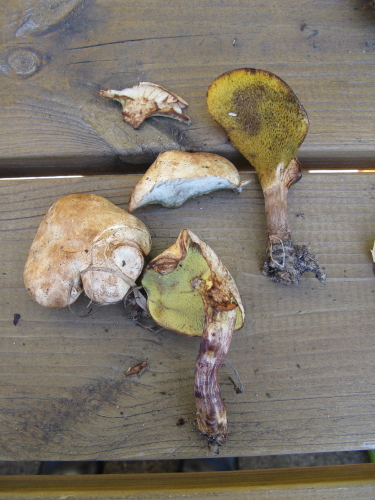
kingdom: Fungi
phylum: Basidiomycota
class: Agaricomycetes
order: Boletales
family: Paxillaceae
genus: Gyrodon
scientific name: Gyrodon lividus
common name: ellerørhat
